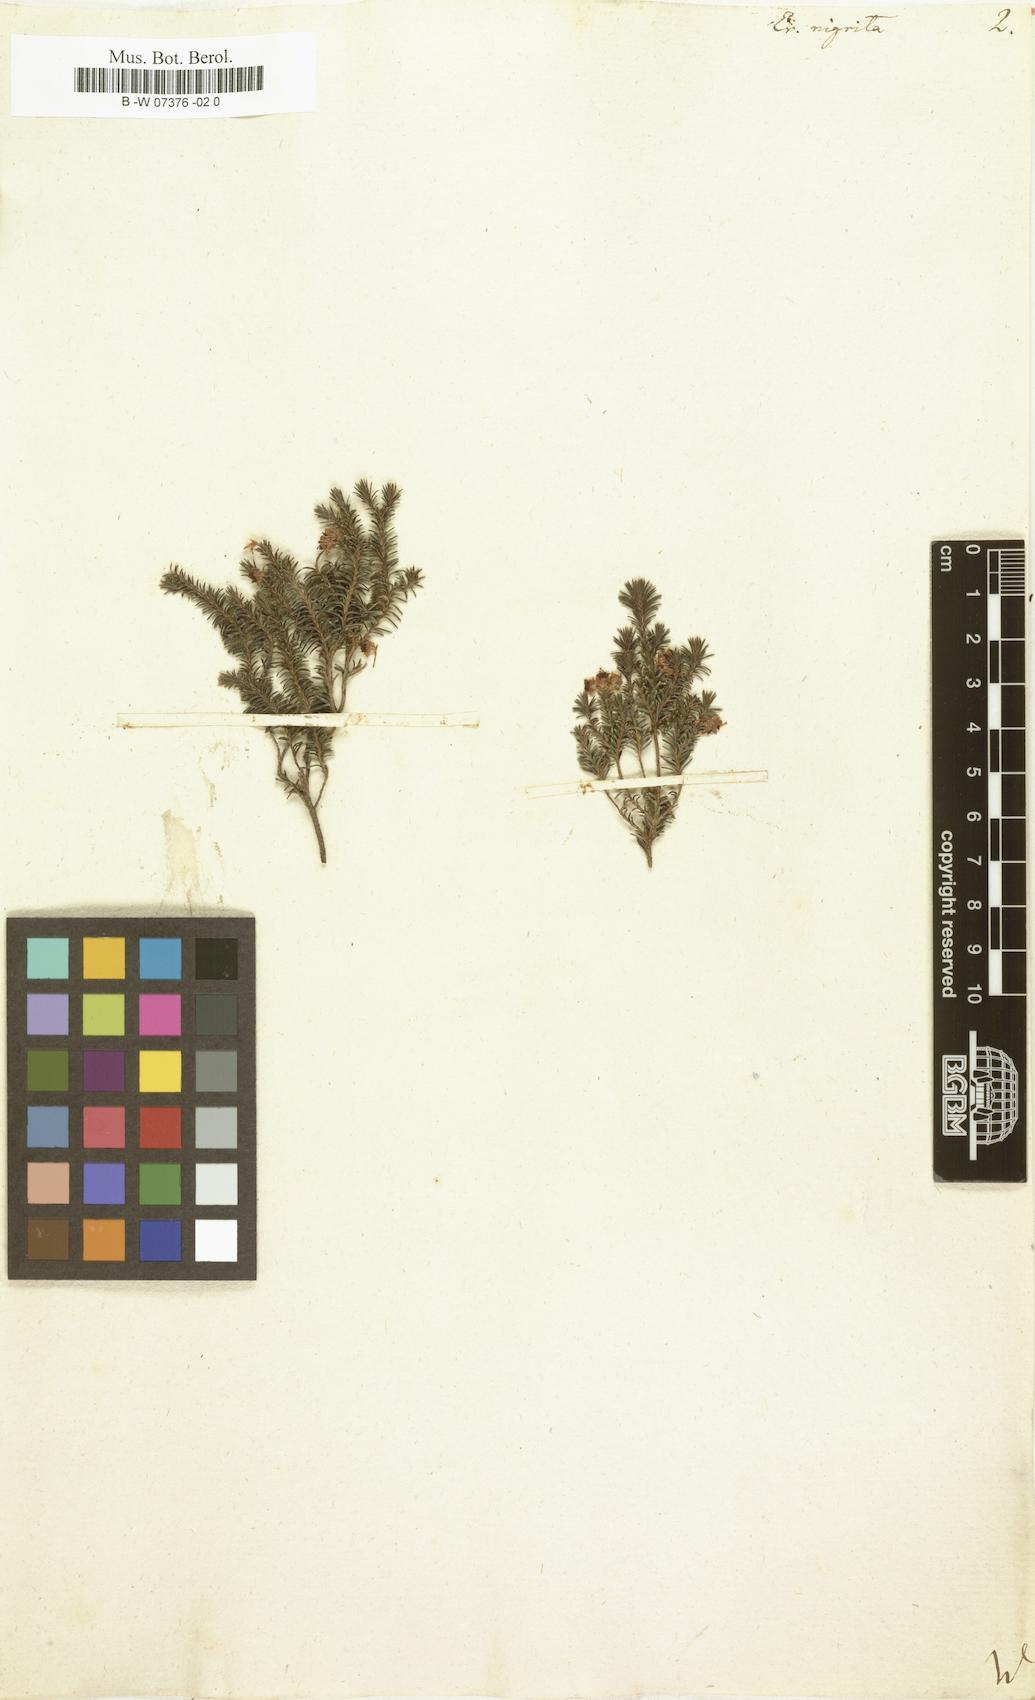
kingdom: Plantae
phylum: Tracheophyta
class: Magnoliopsida
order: Ericales
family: Ericaceae
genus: Erica
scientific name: Erica calycina
